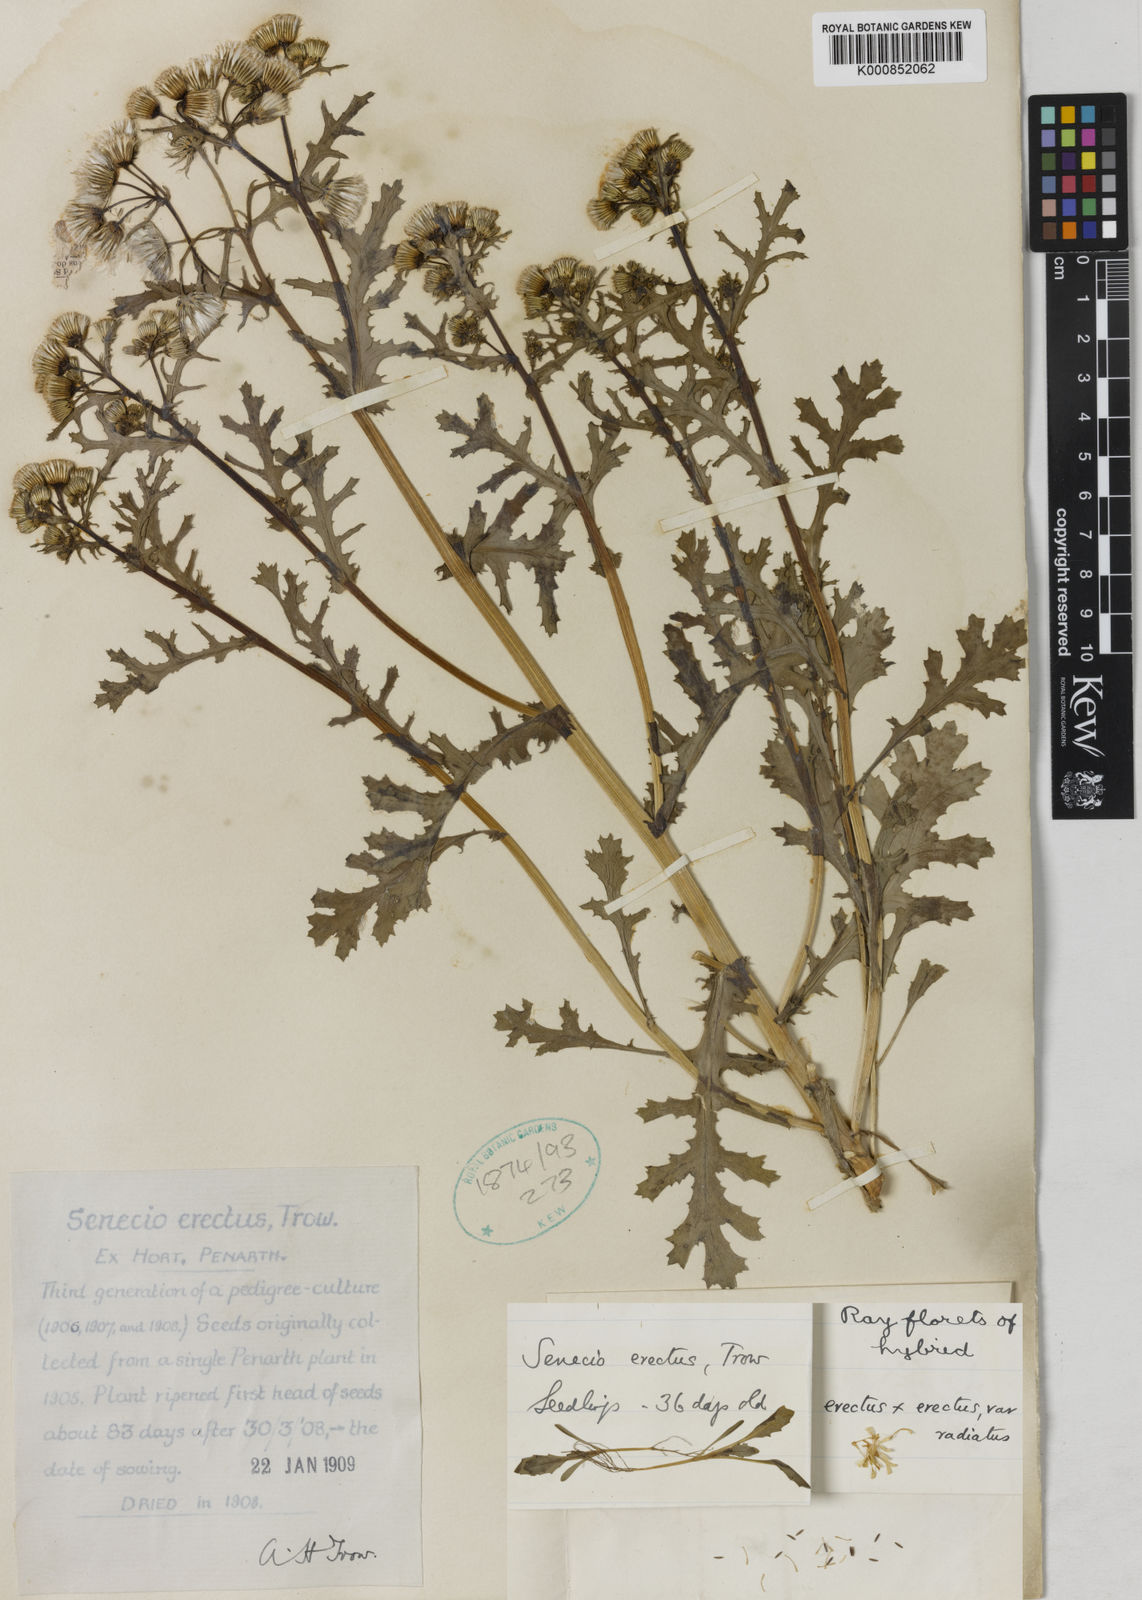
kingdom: Plantae
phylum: Tracheophyta
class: Magnoliopsida
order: Asterales
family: Asteraceae
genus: Senecio
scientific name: Senecio vulgaris
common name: Old-man-in-the-spring
